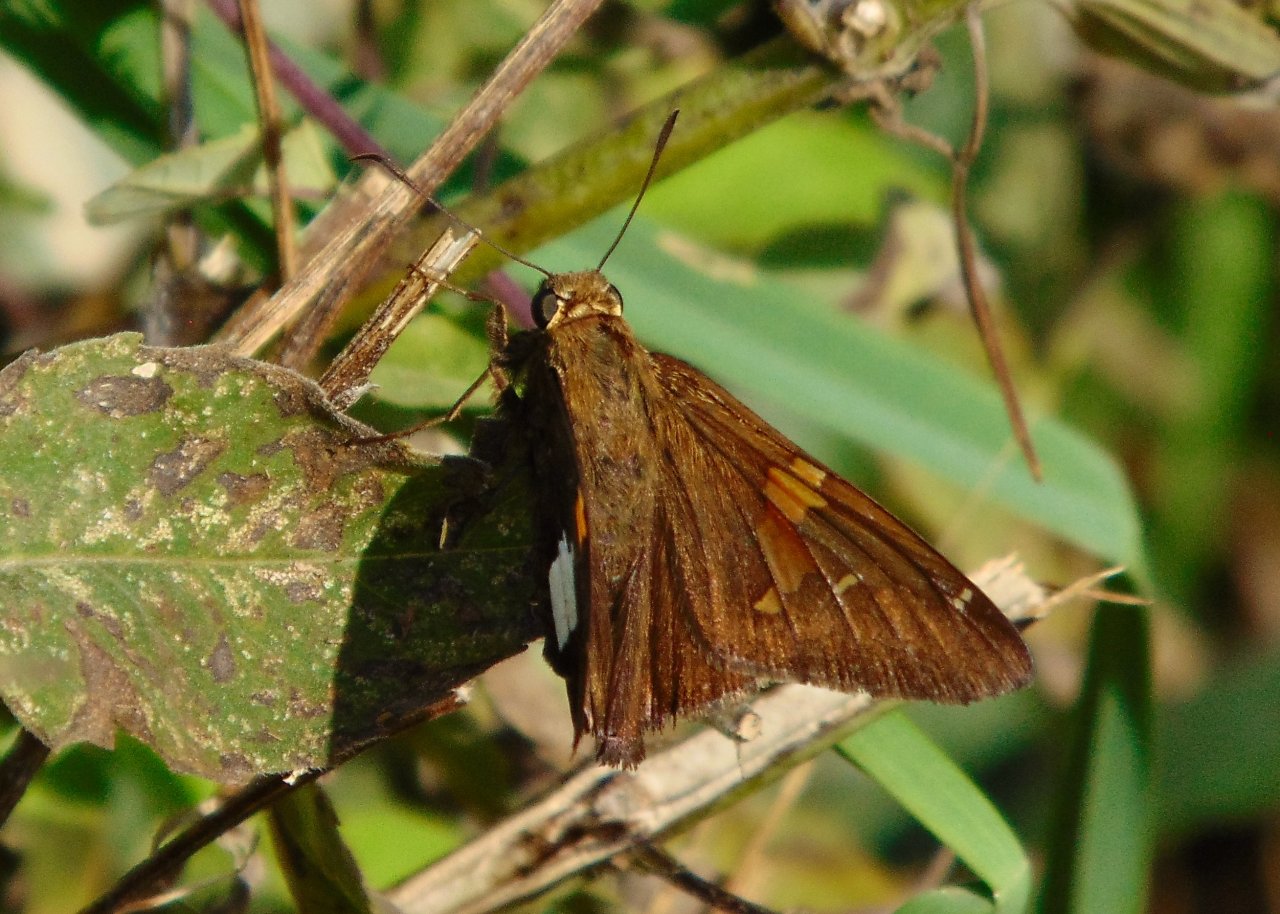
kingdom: Animalia
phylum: Arthropoda
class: Insecta
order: Lepidoptera
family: Hesperiidae
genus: Epargyreus
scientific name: Epargyreus clarus
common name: Silver-spotted Skipper
